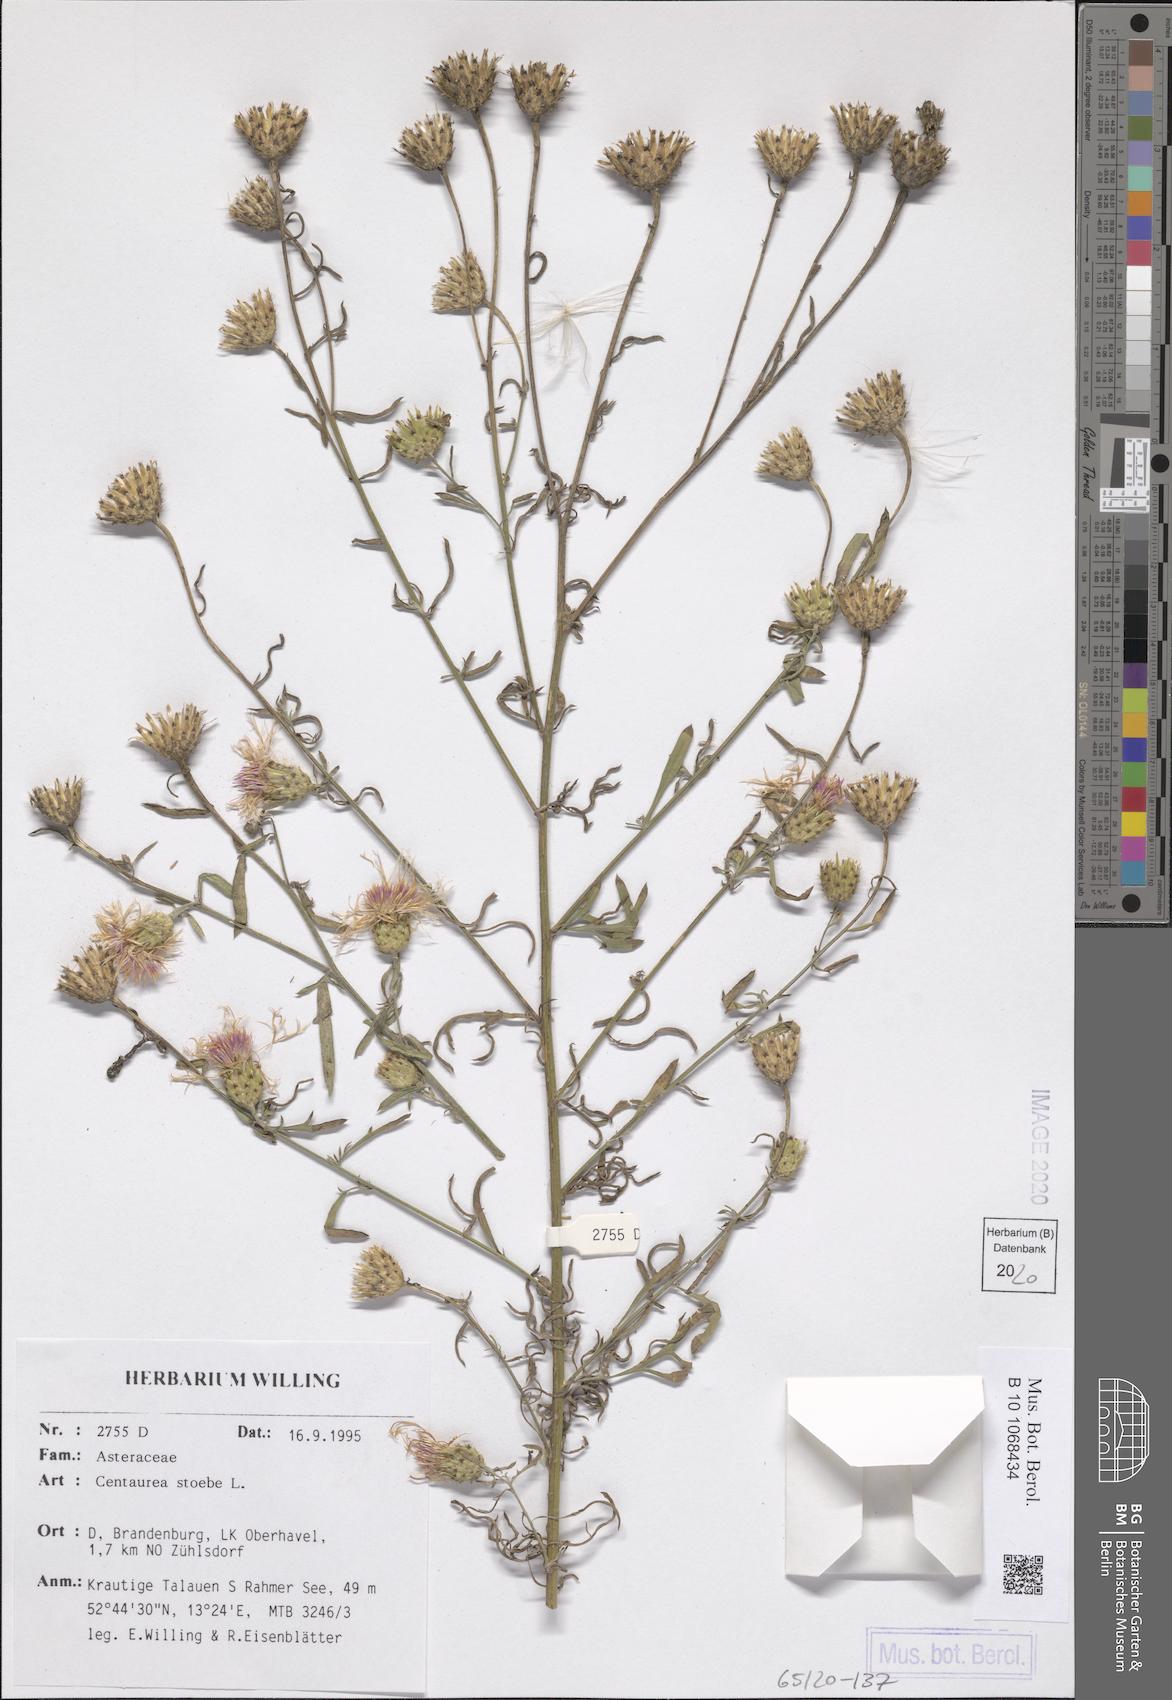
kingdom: Plantae
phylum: Tracheophyta
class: Magnoliopsida
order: Asterales
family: Asteraceae
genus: Centaurea
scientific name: Centaurea stoebe
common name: Spotted knapweed
